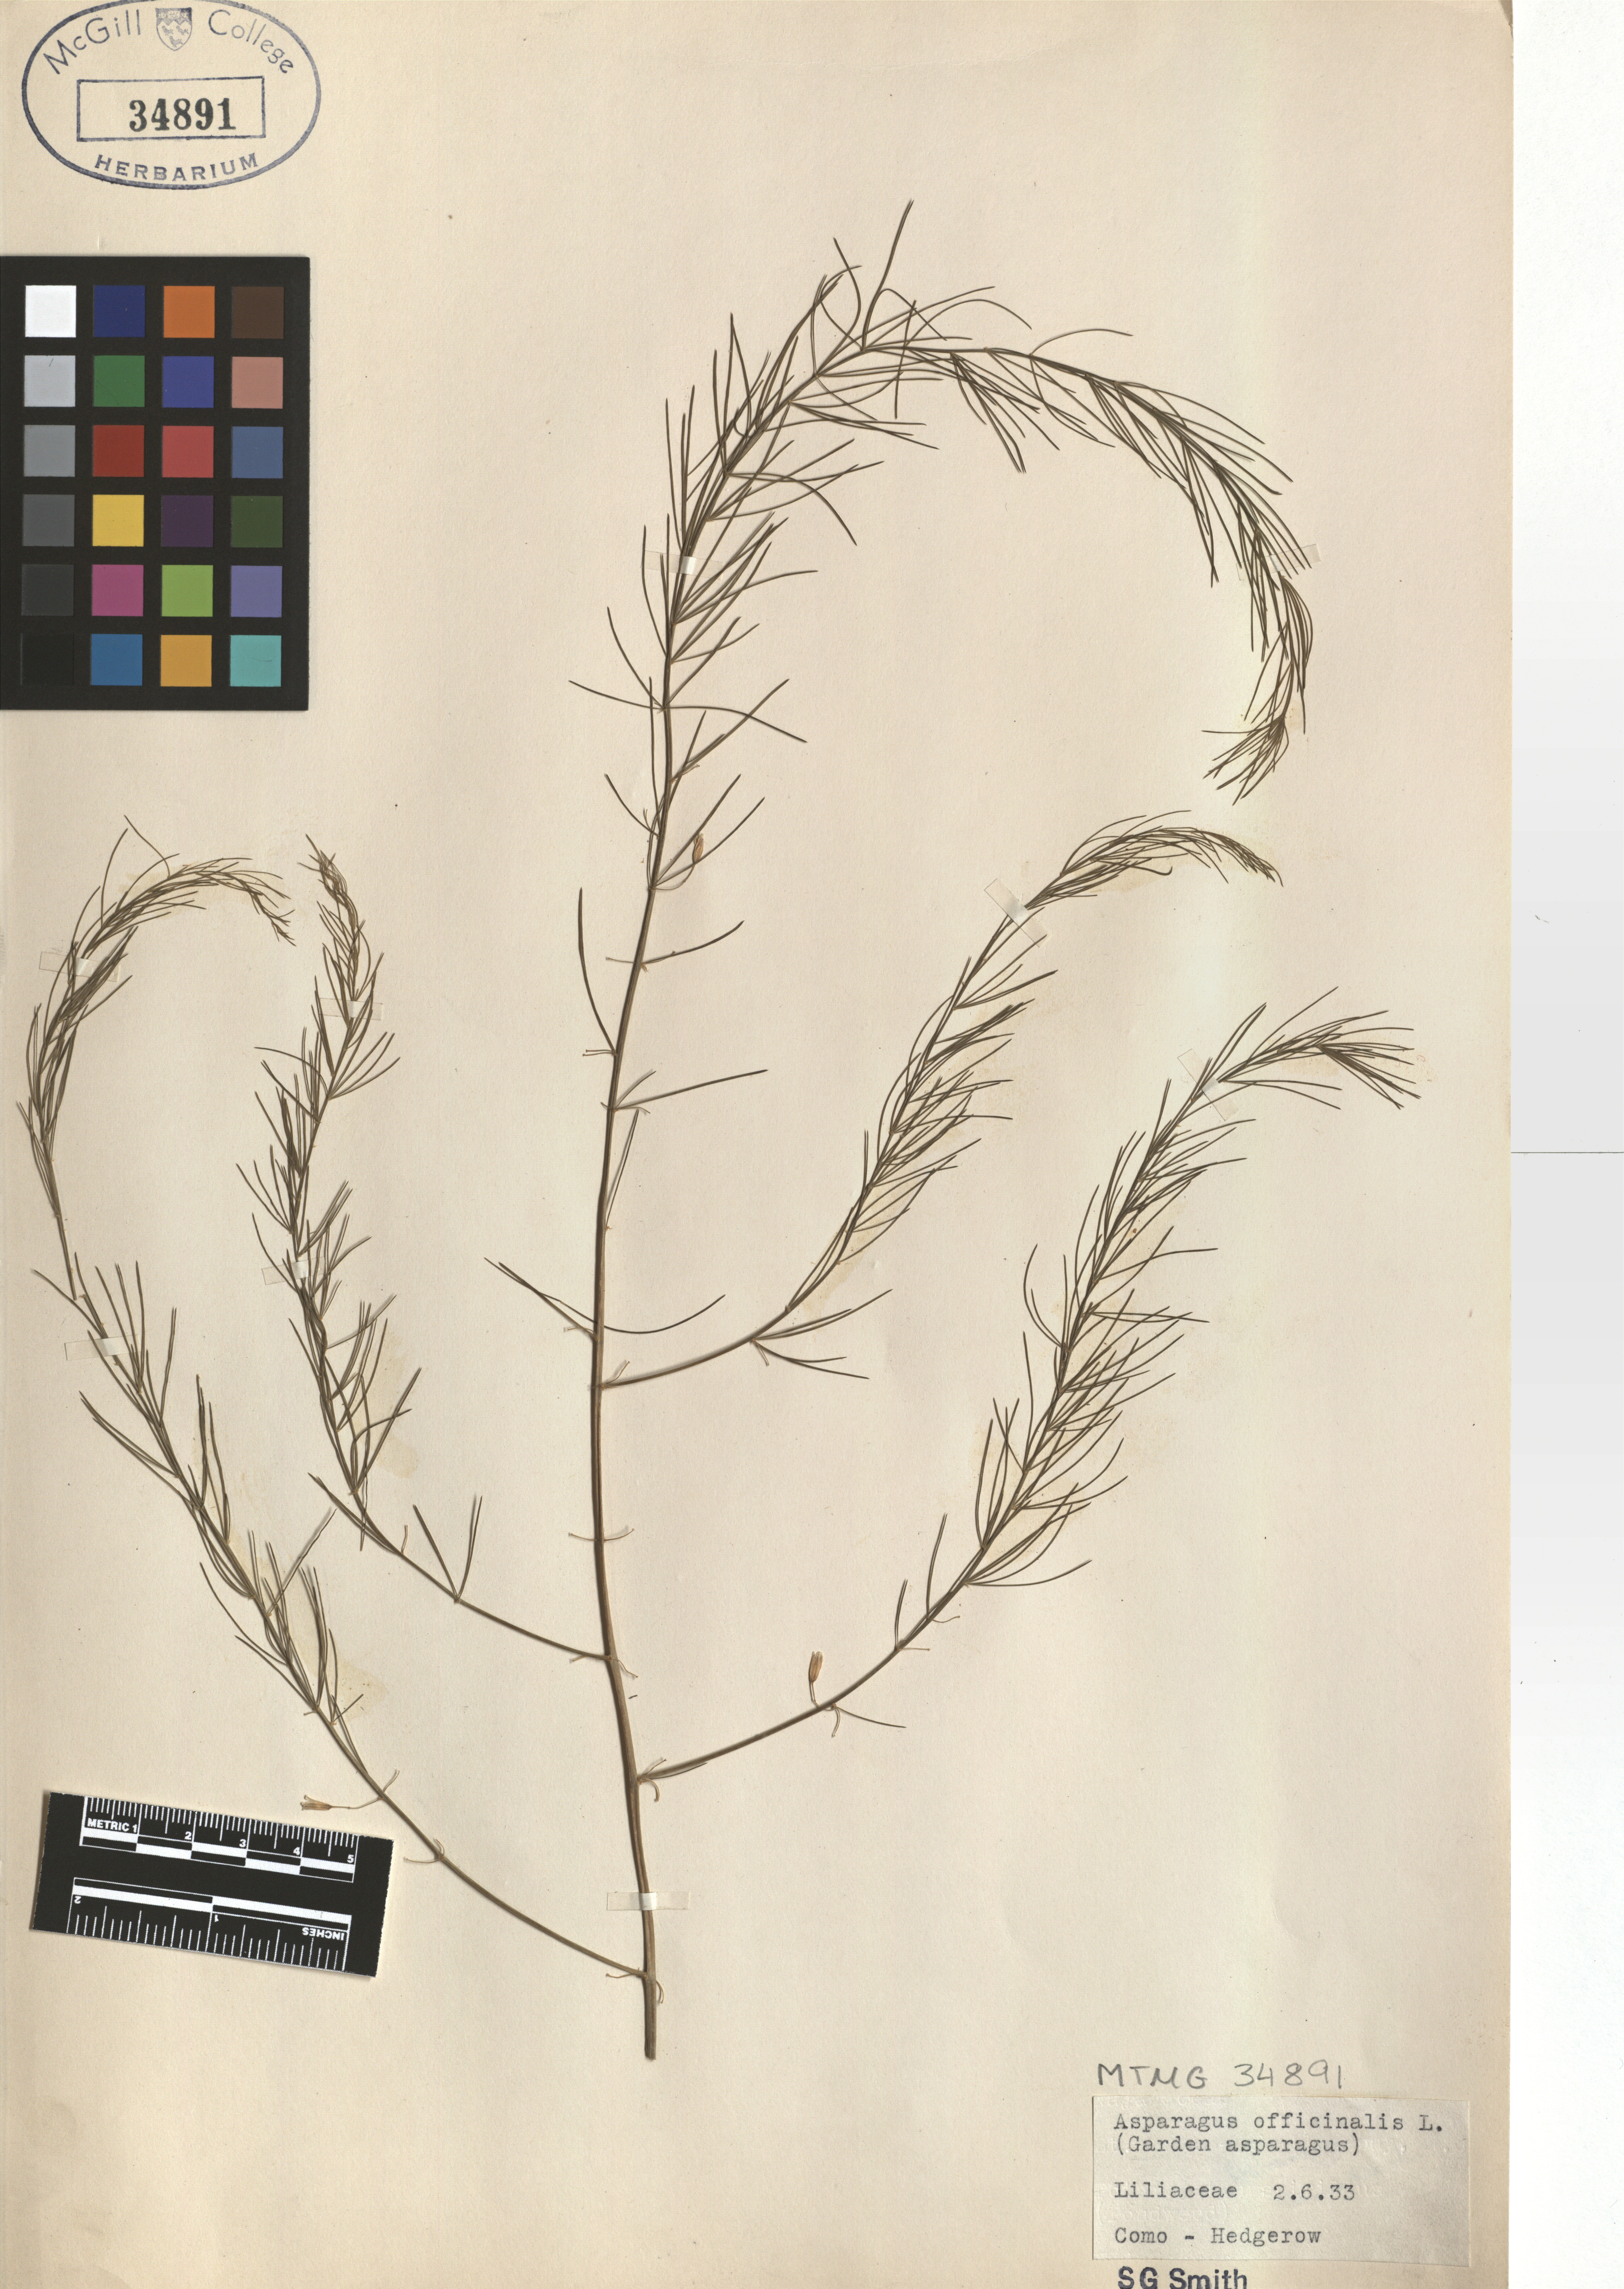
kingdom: Plantae
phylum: Tracheophyta
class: Liliopsida
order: Asparagales
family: Asparagaceae
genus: Asparagus
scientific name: Asparagus officinalis
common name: Garden asparagus
